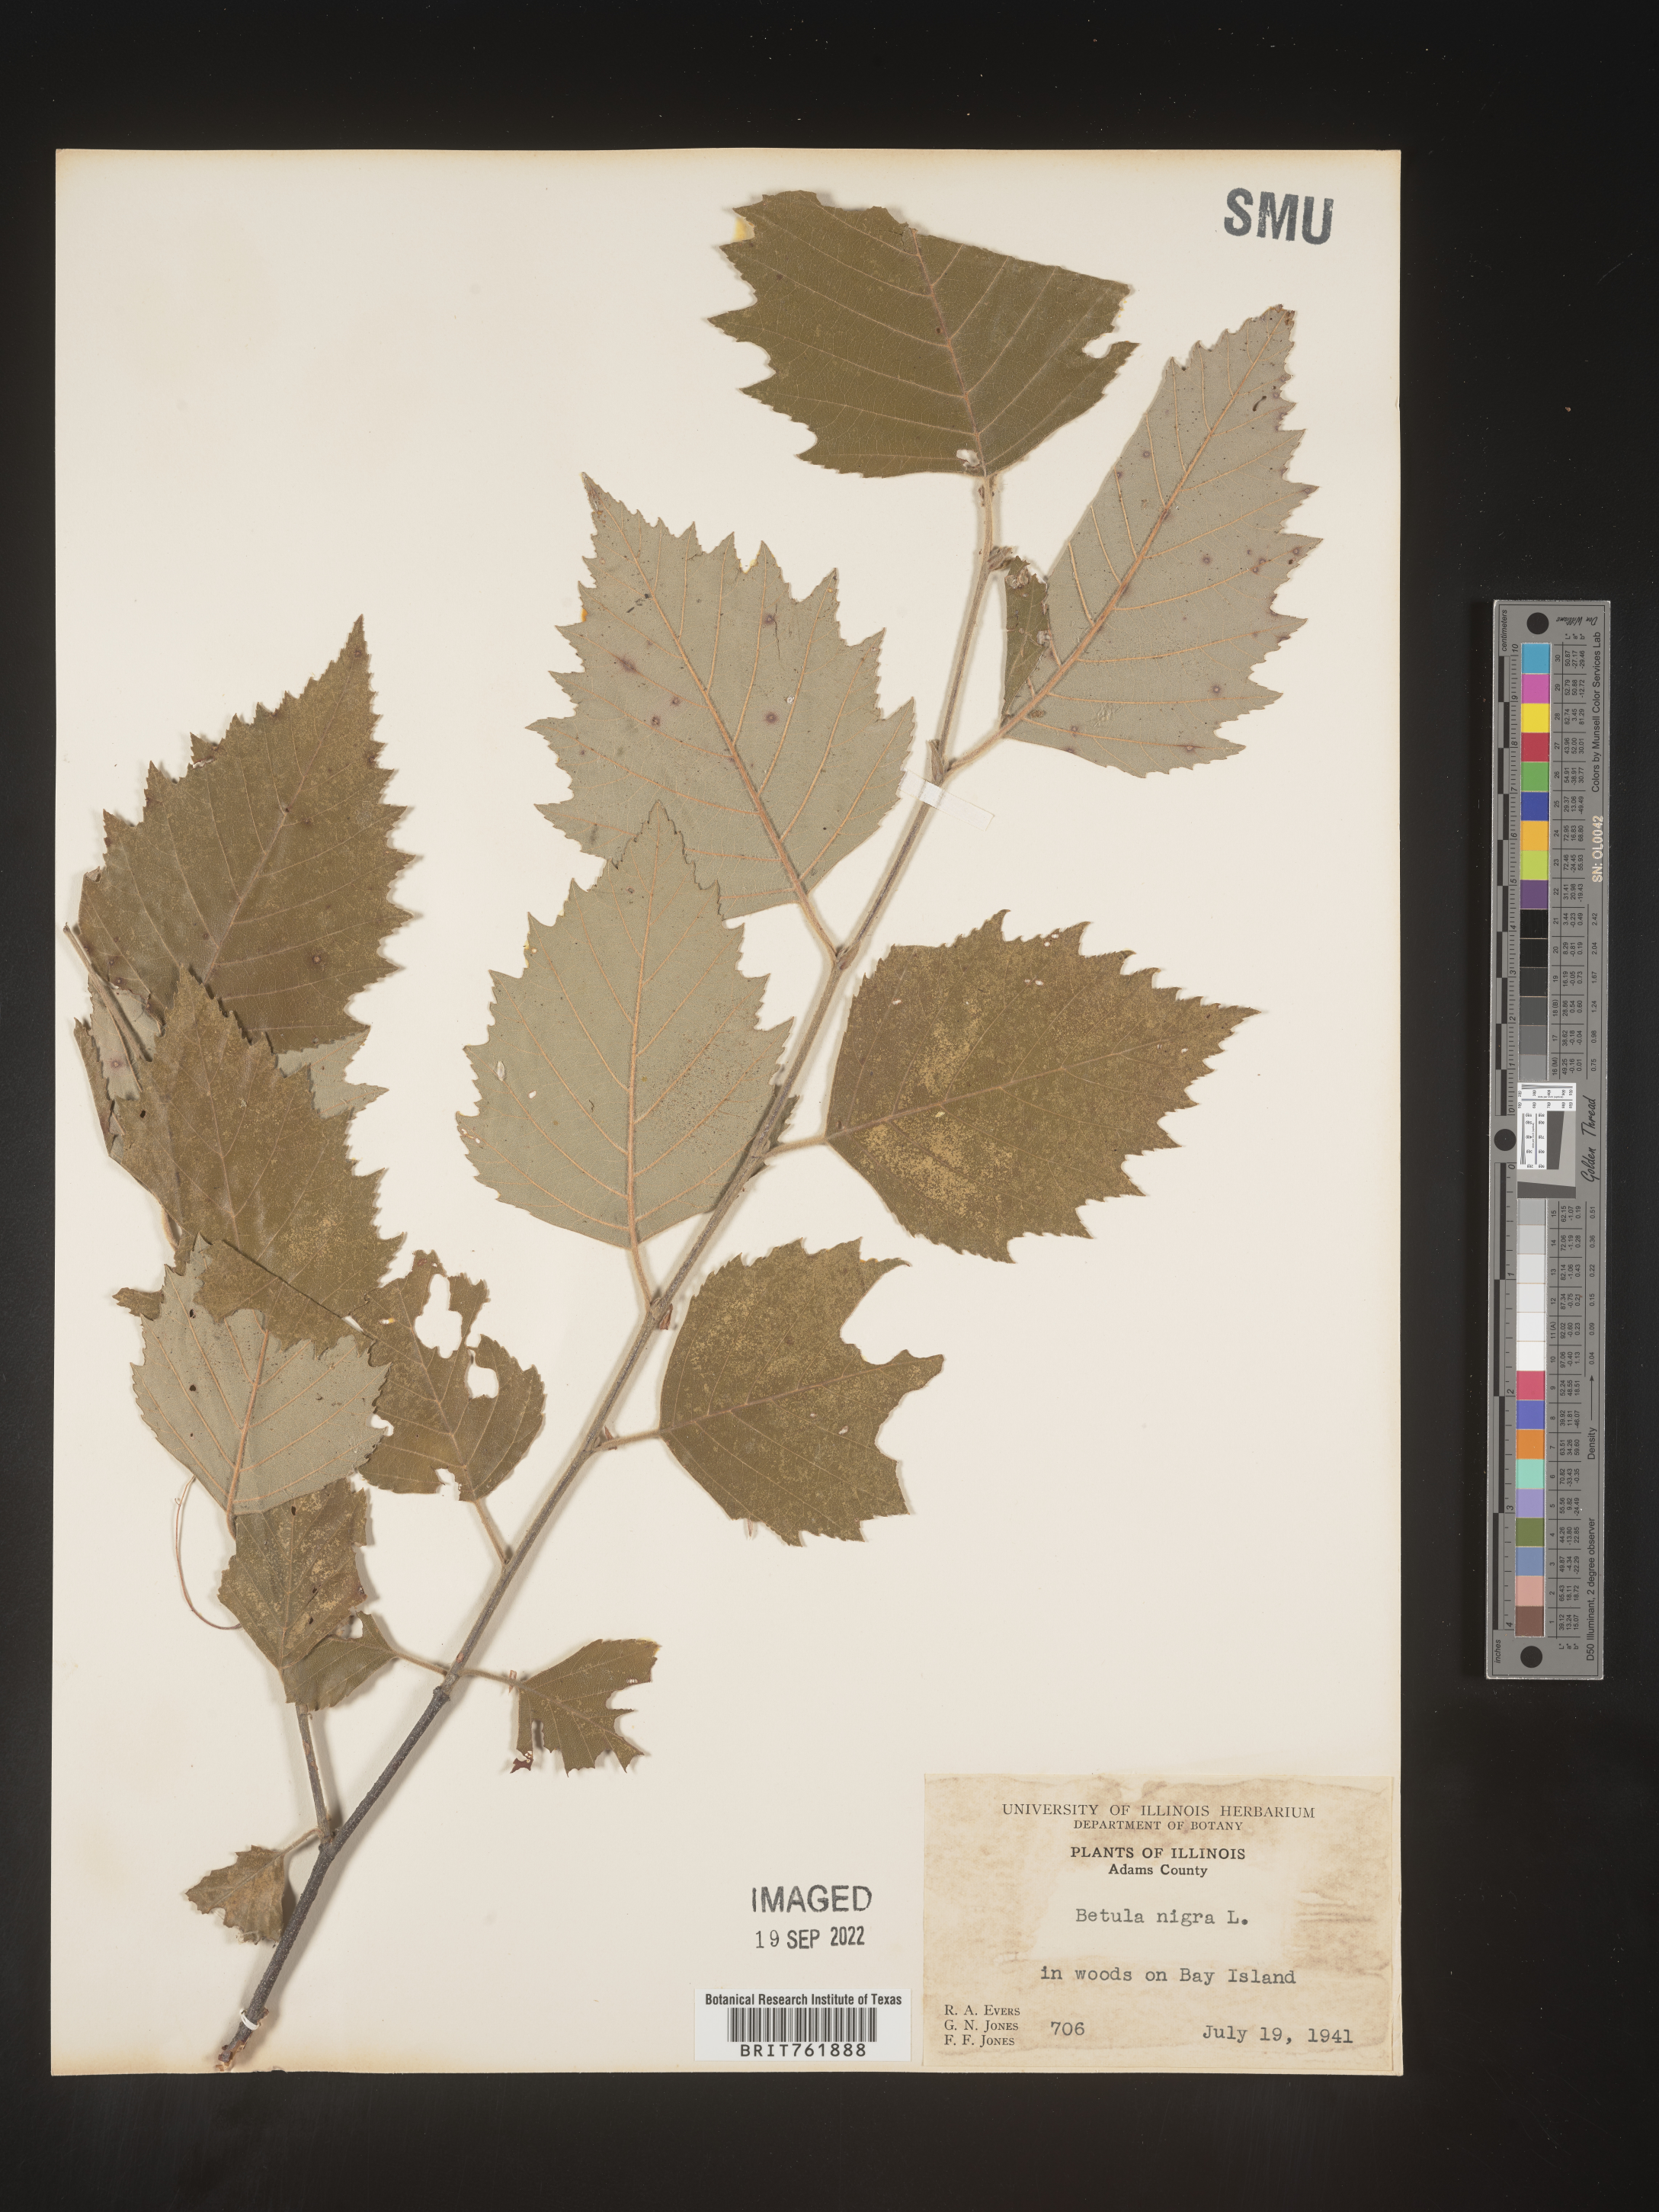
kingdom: Plantae
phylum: Tracheophyta
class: Magnoliopsida
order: Fagales
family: Betulaceae
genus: Betula
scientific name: Betula nigra
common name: Black birch
